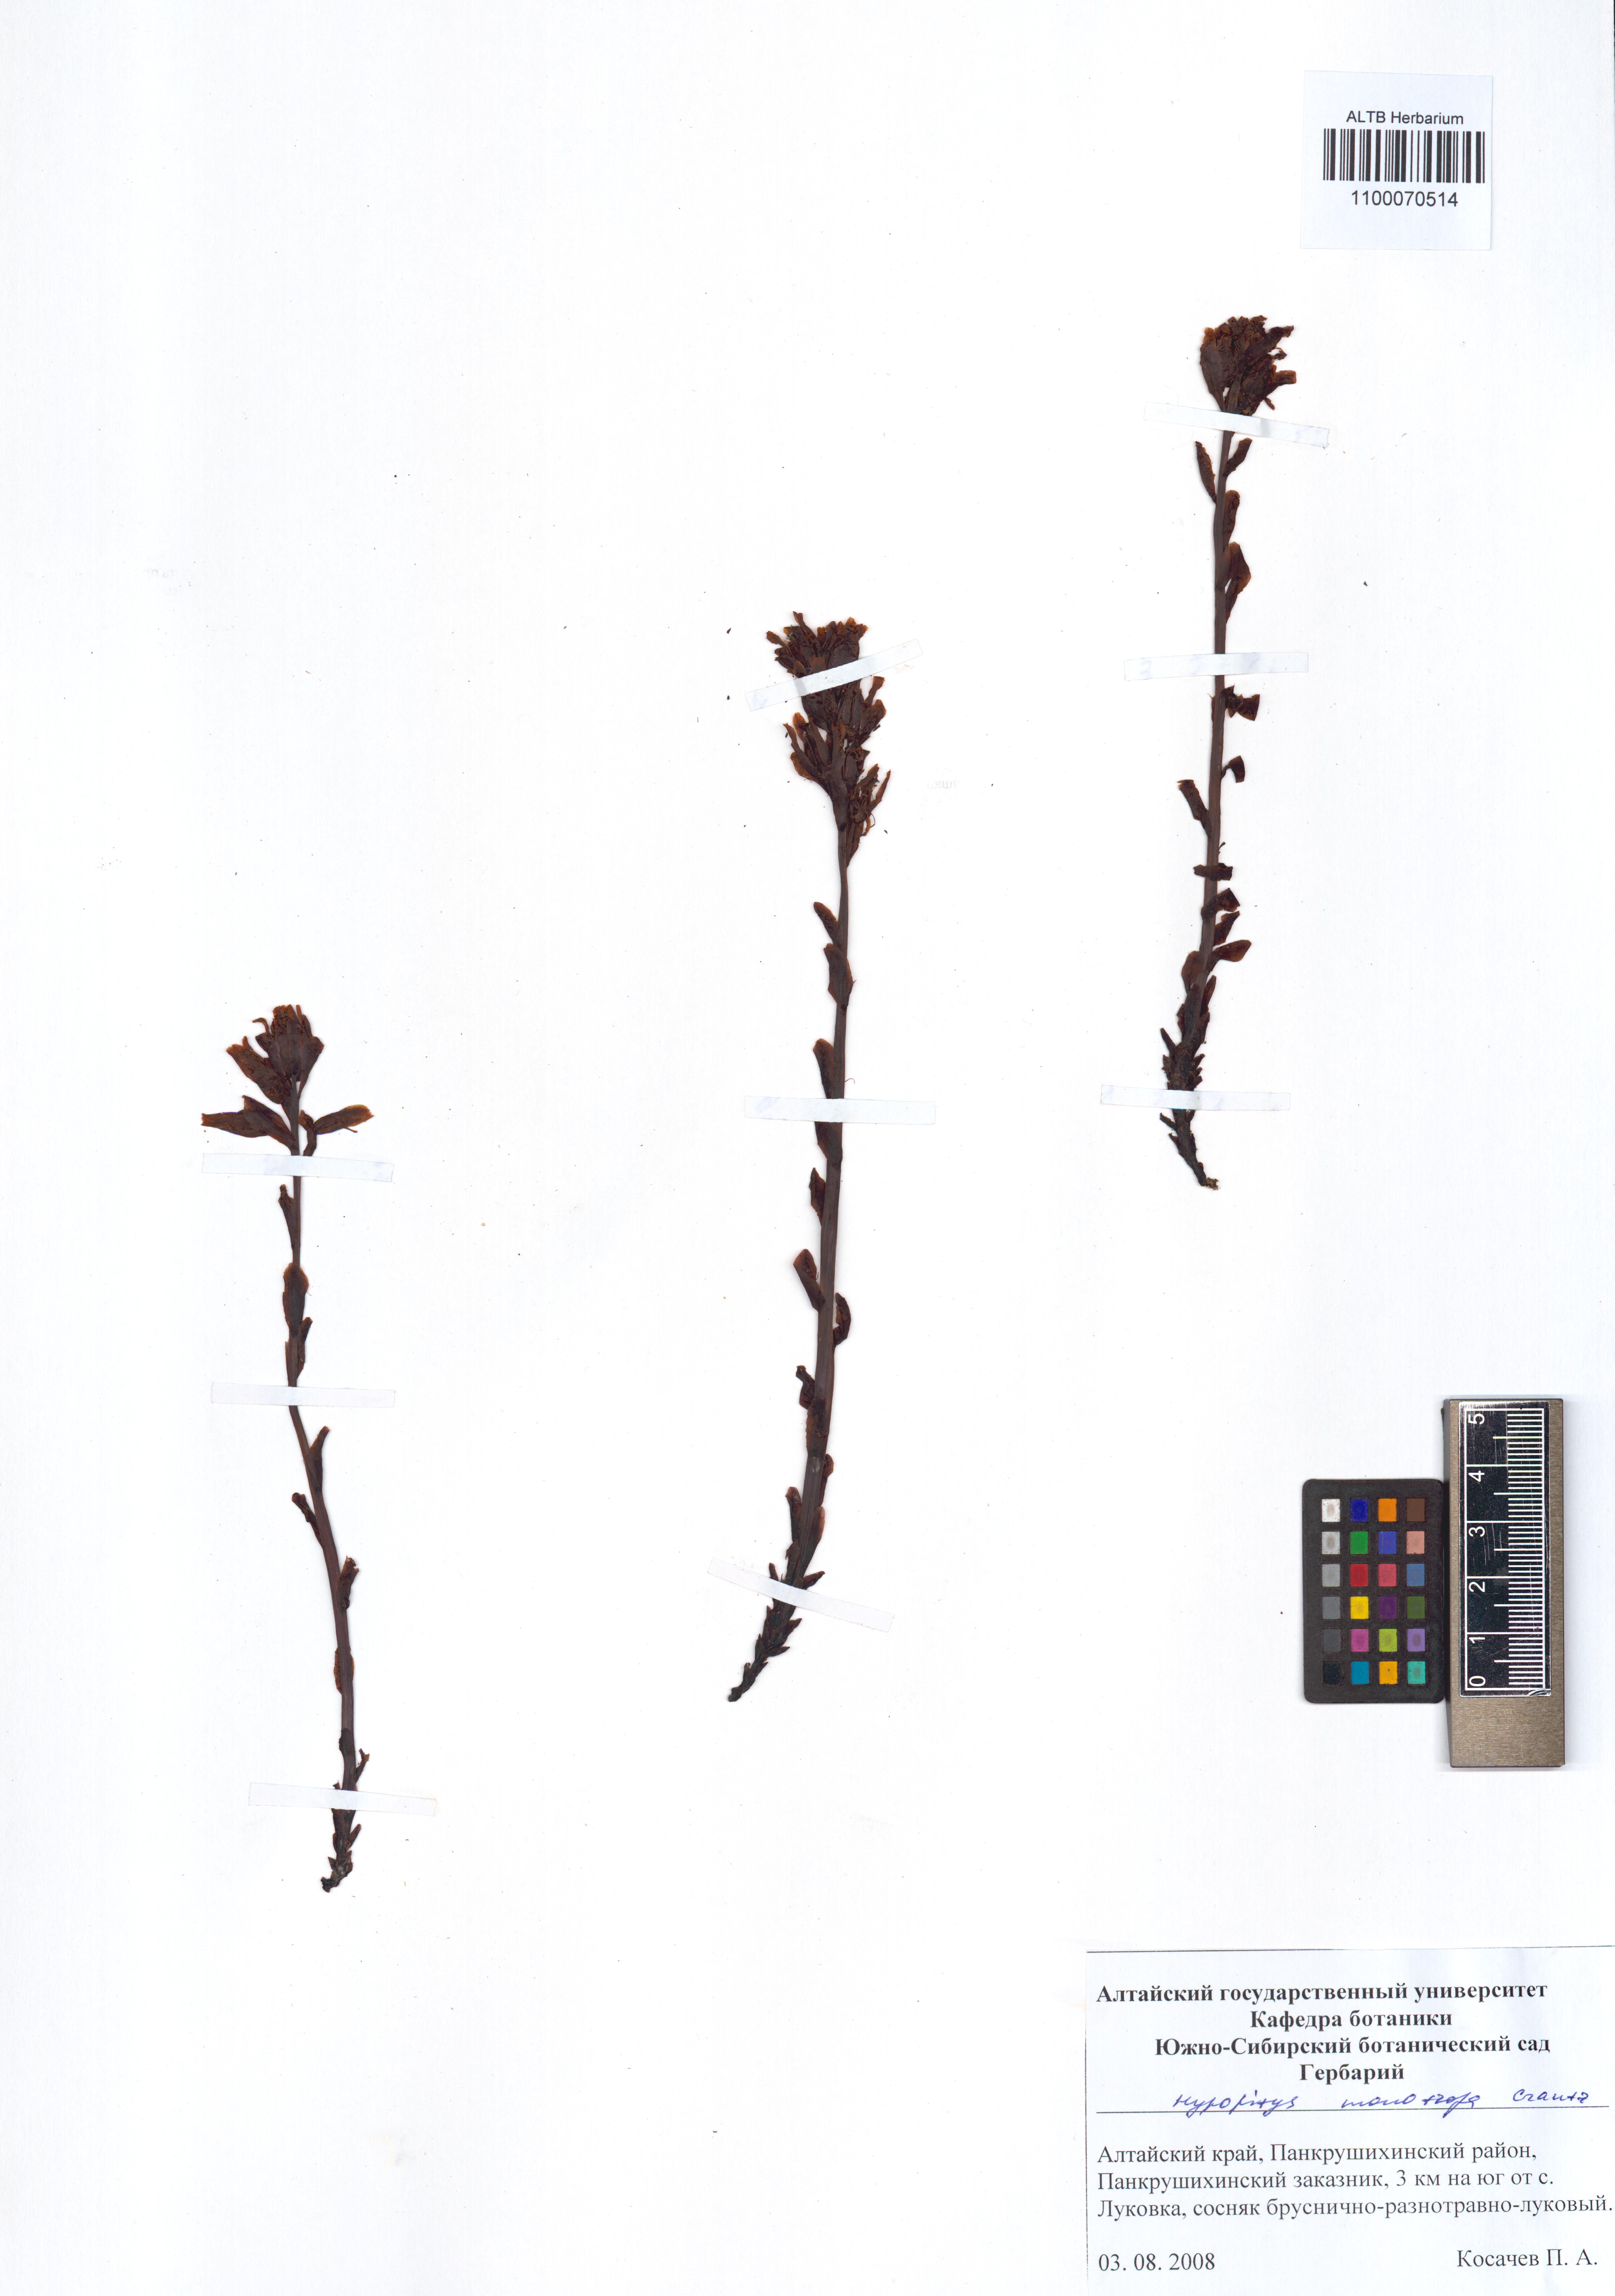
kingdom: Plantae
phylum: Tracheophyta
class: Magnoliopsida
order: Ericales
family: Ericaceae
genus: Hypopitys
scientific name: Hypopitys monotropa
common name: Yellow bird's-nest
